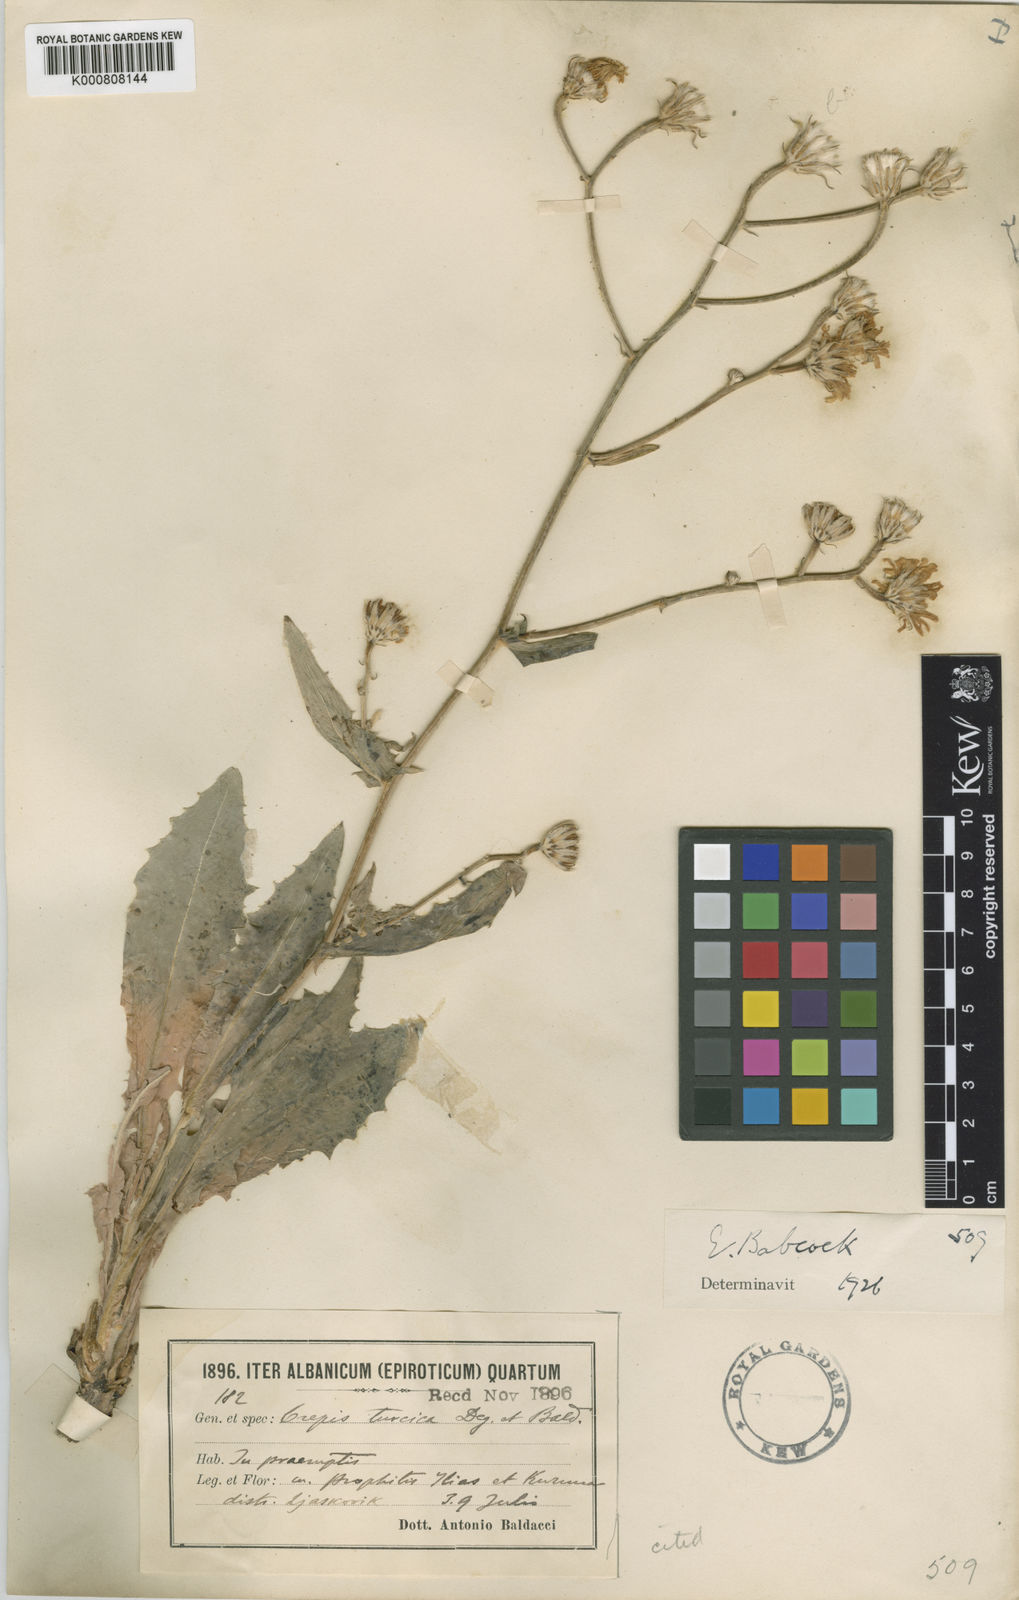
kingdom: Plantae
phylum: Tracheophyta
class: Magnoliopsida
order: Asterales
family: Asteraceae
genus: Crepis
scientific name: Crepis turcica
